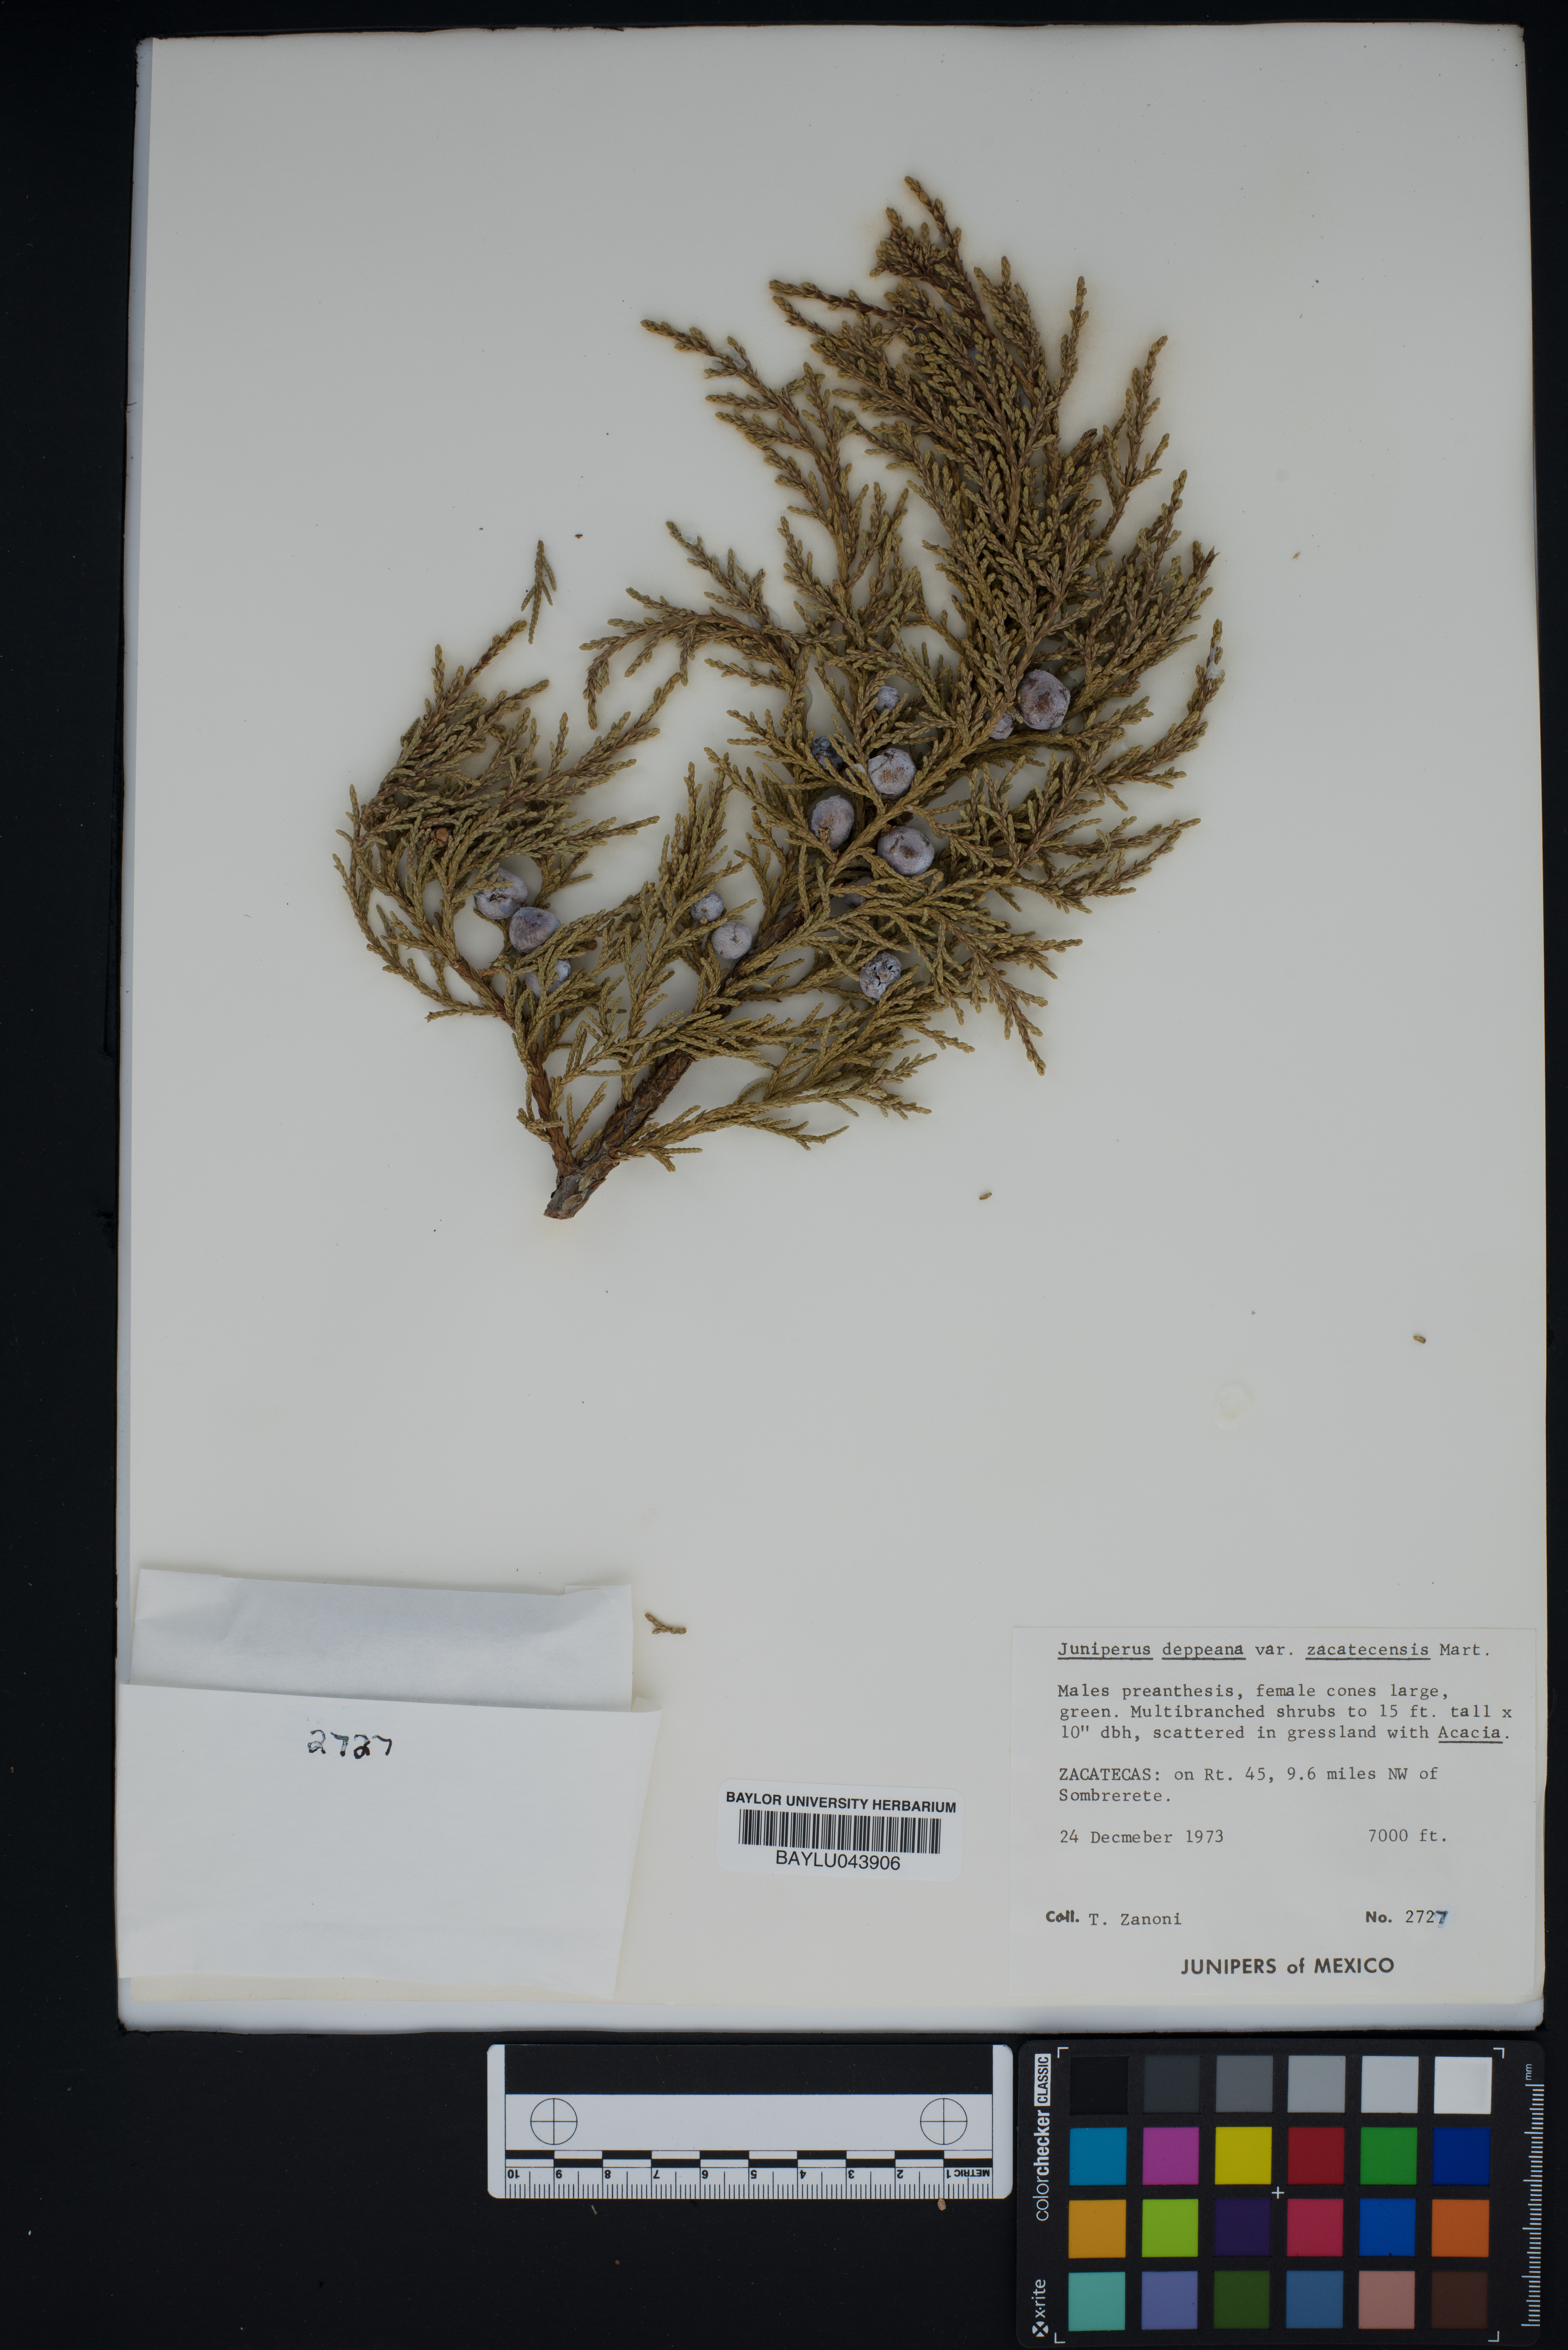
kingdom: Plantae
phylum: Tracheophyta
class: Pinopsida
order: Pinales
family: Cupressaceae
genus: Juniperus
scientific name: Juniperus deppeana
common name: Alligator juniper
